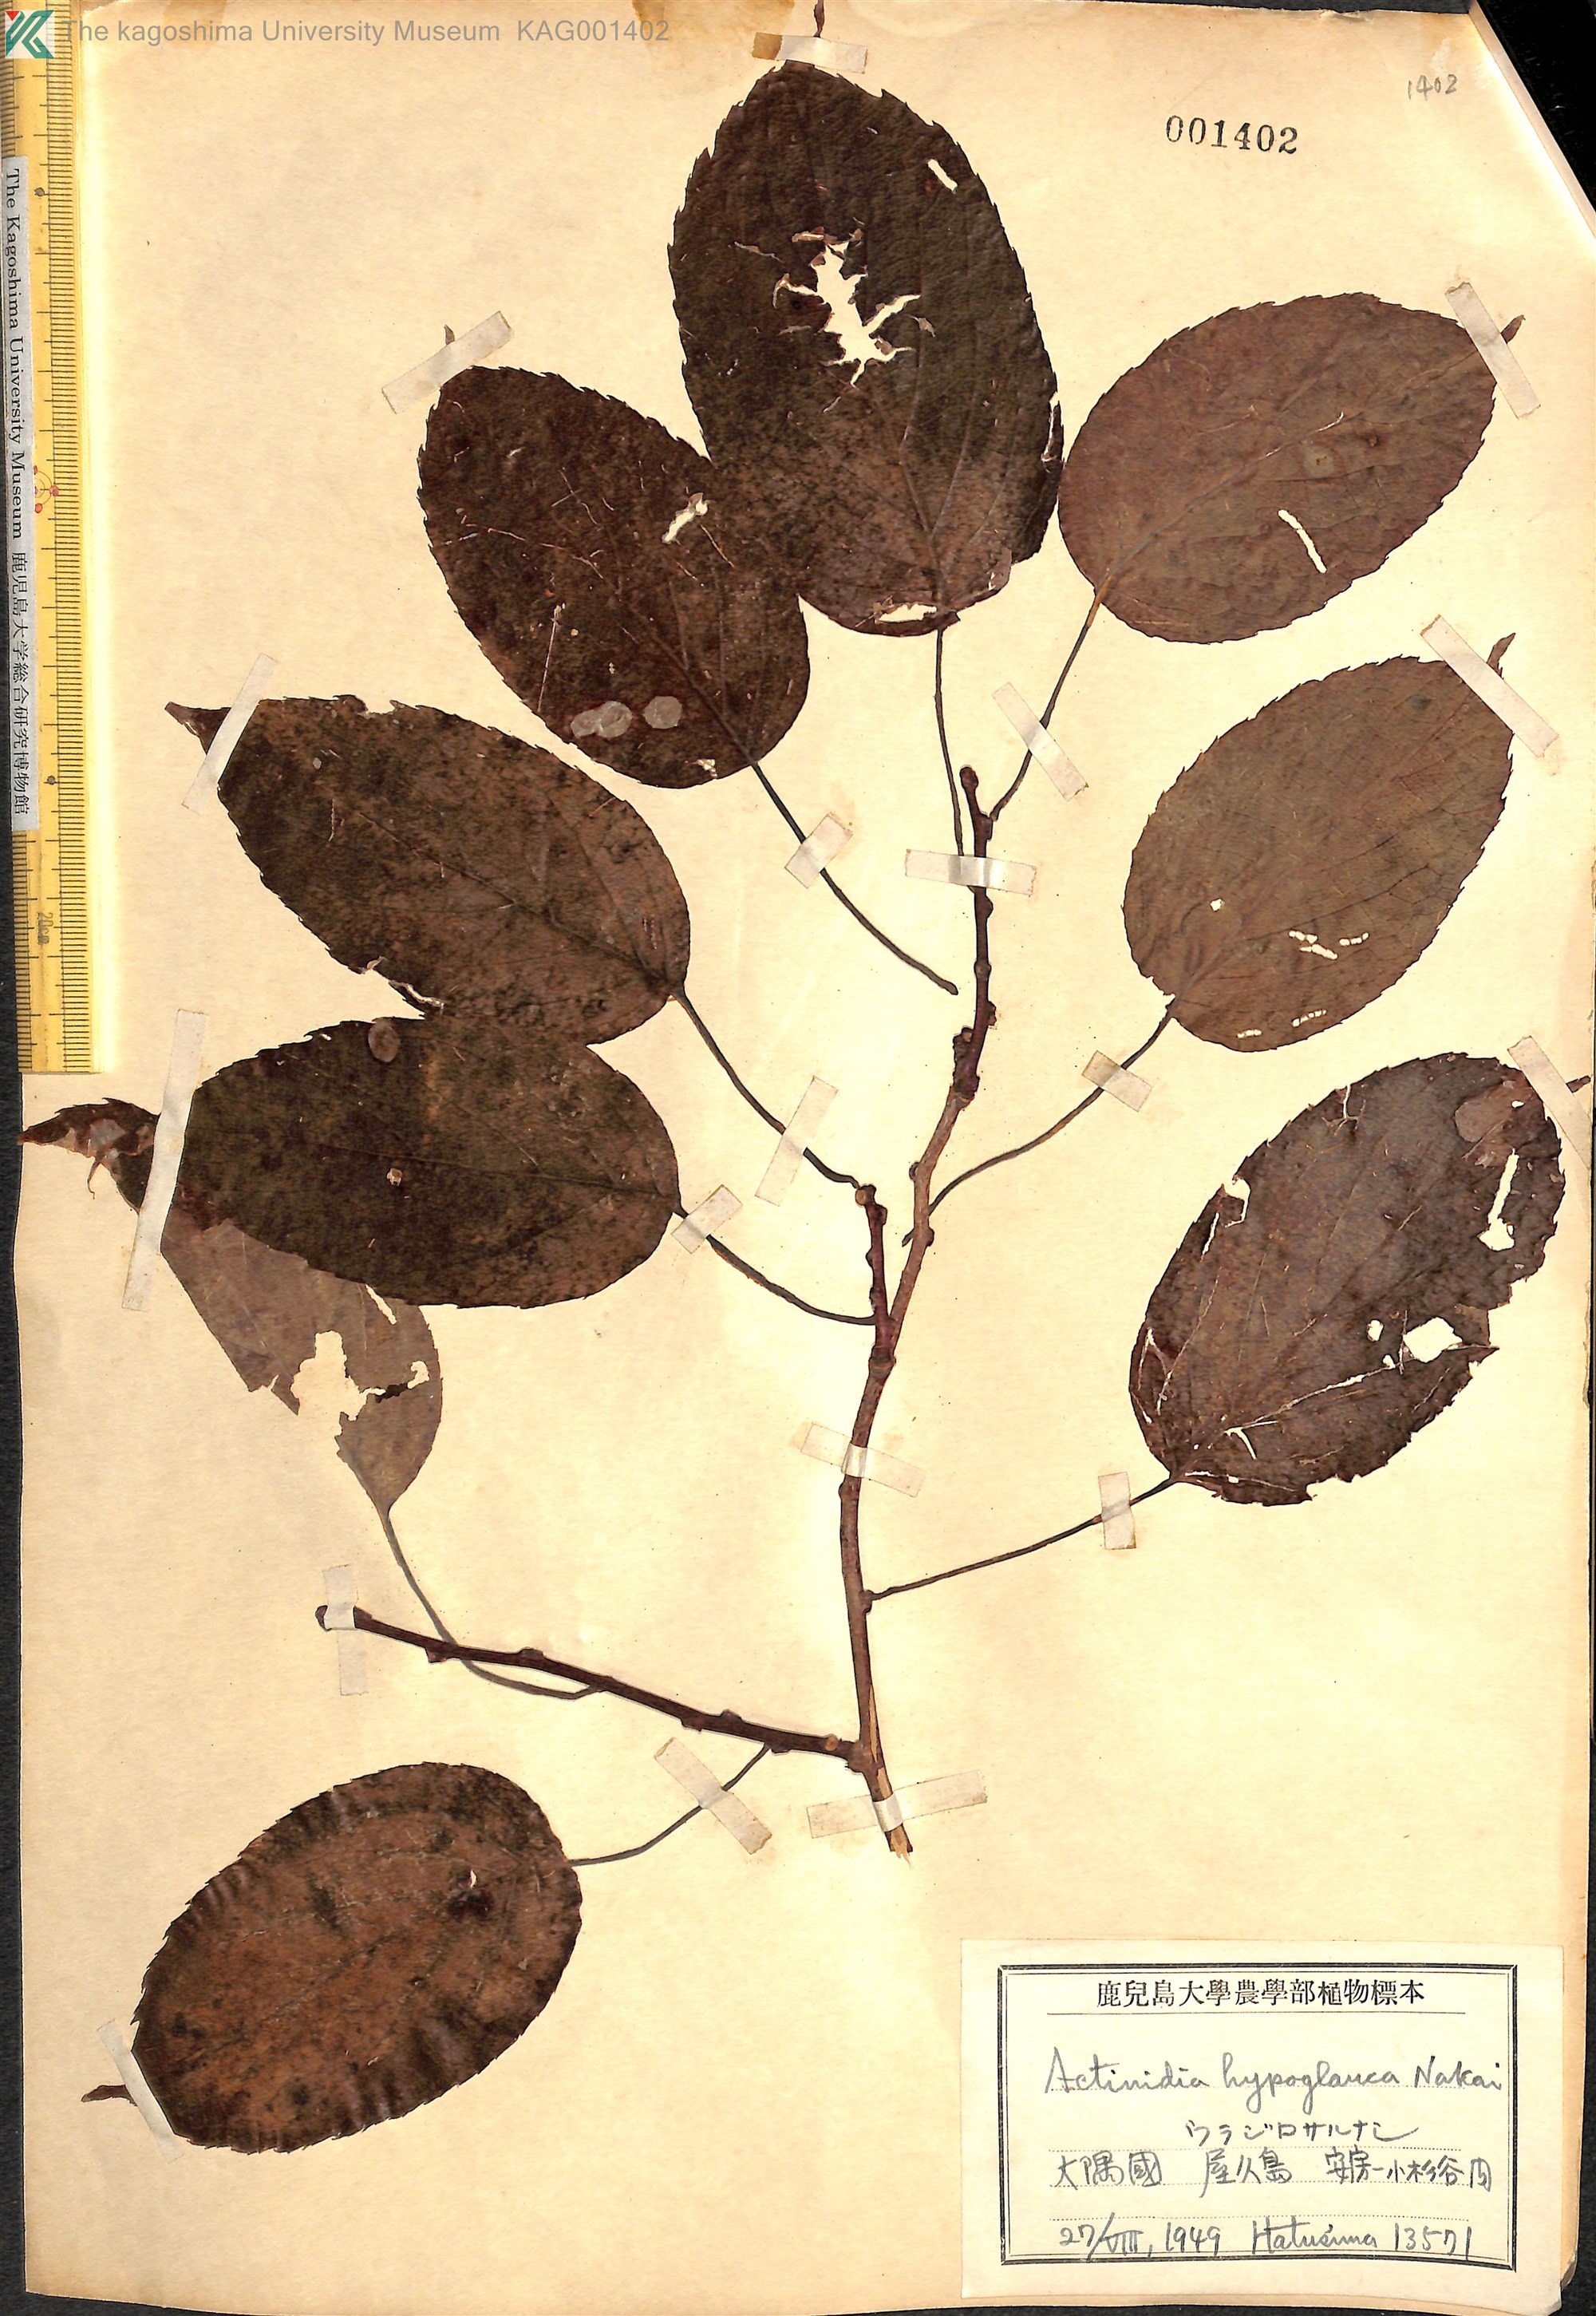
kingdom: Plantae
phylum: Tracheophyta
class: Magnoliopsida
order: Ericales
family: Actinidiaceae
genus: Actinidia
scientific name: Actinidia arguta
